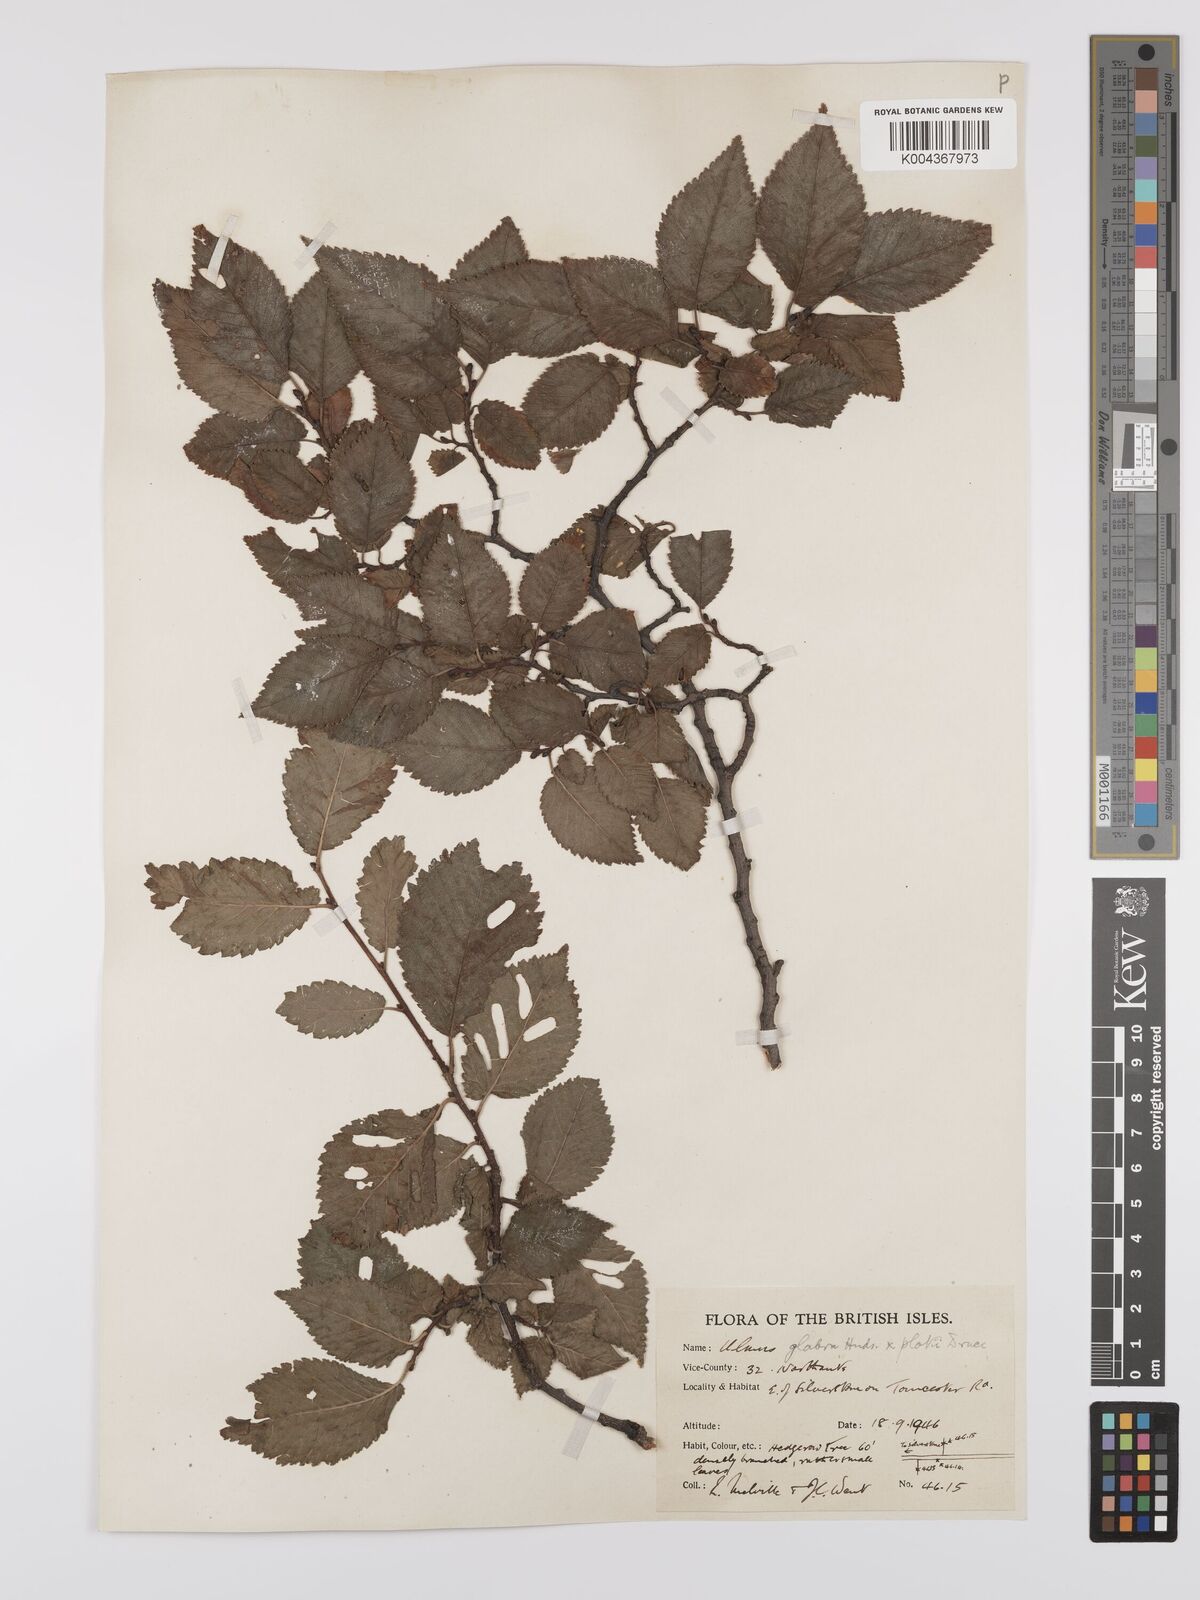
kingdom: Plantae
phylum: Tracheophyta
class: Magnoliopsida
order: Rosales
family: Ulmaceae
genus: Ulmus
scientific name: Ulmus minor
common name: Small-leaved elm
